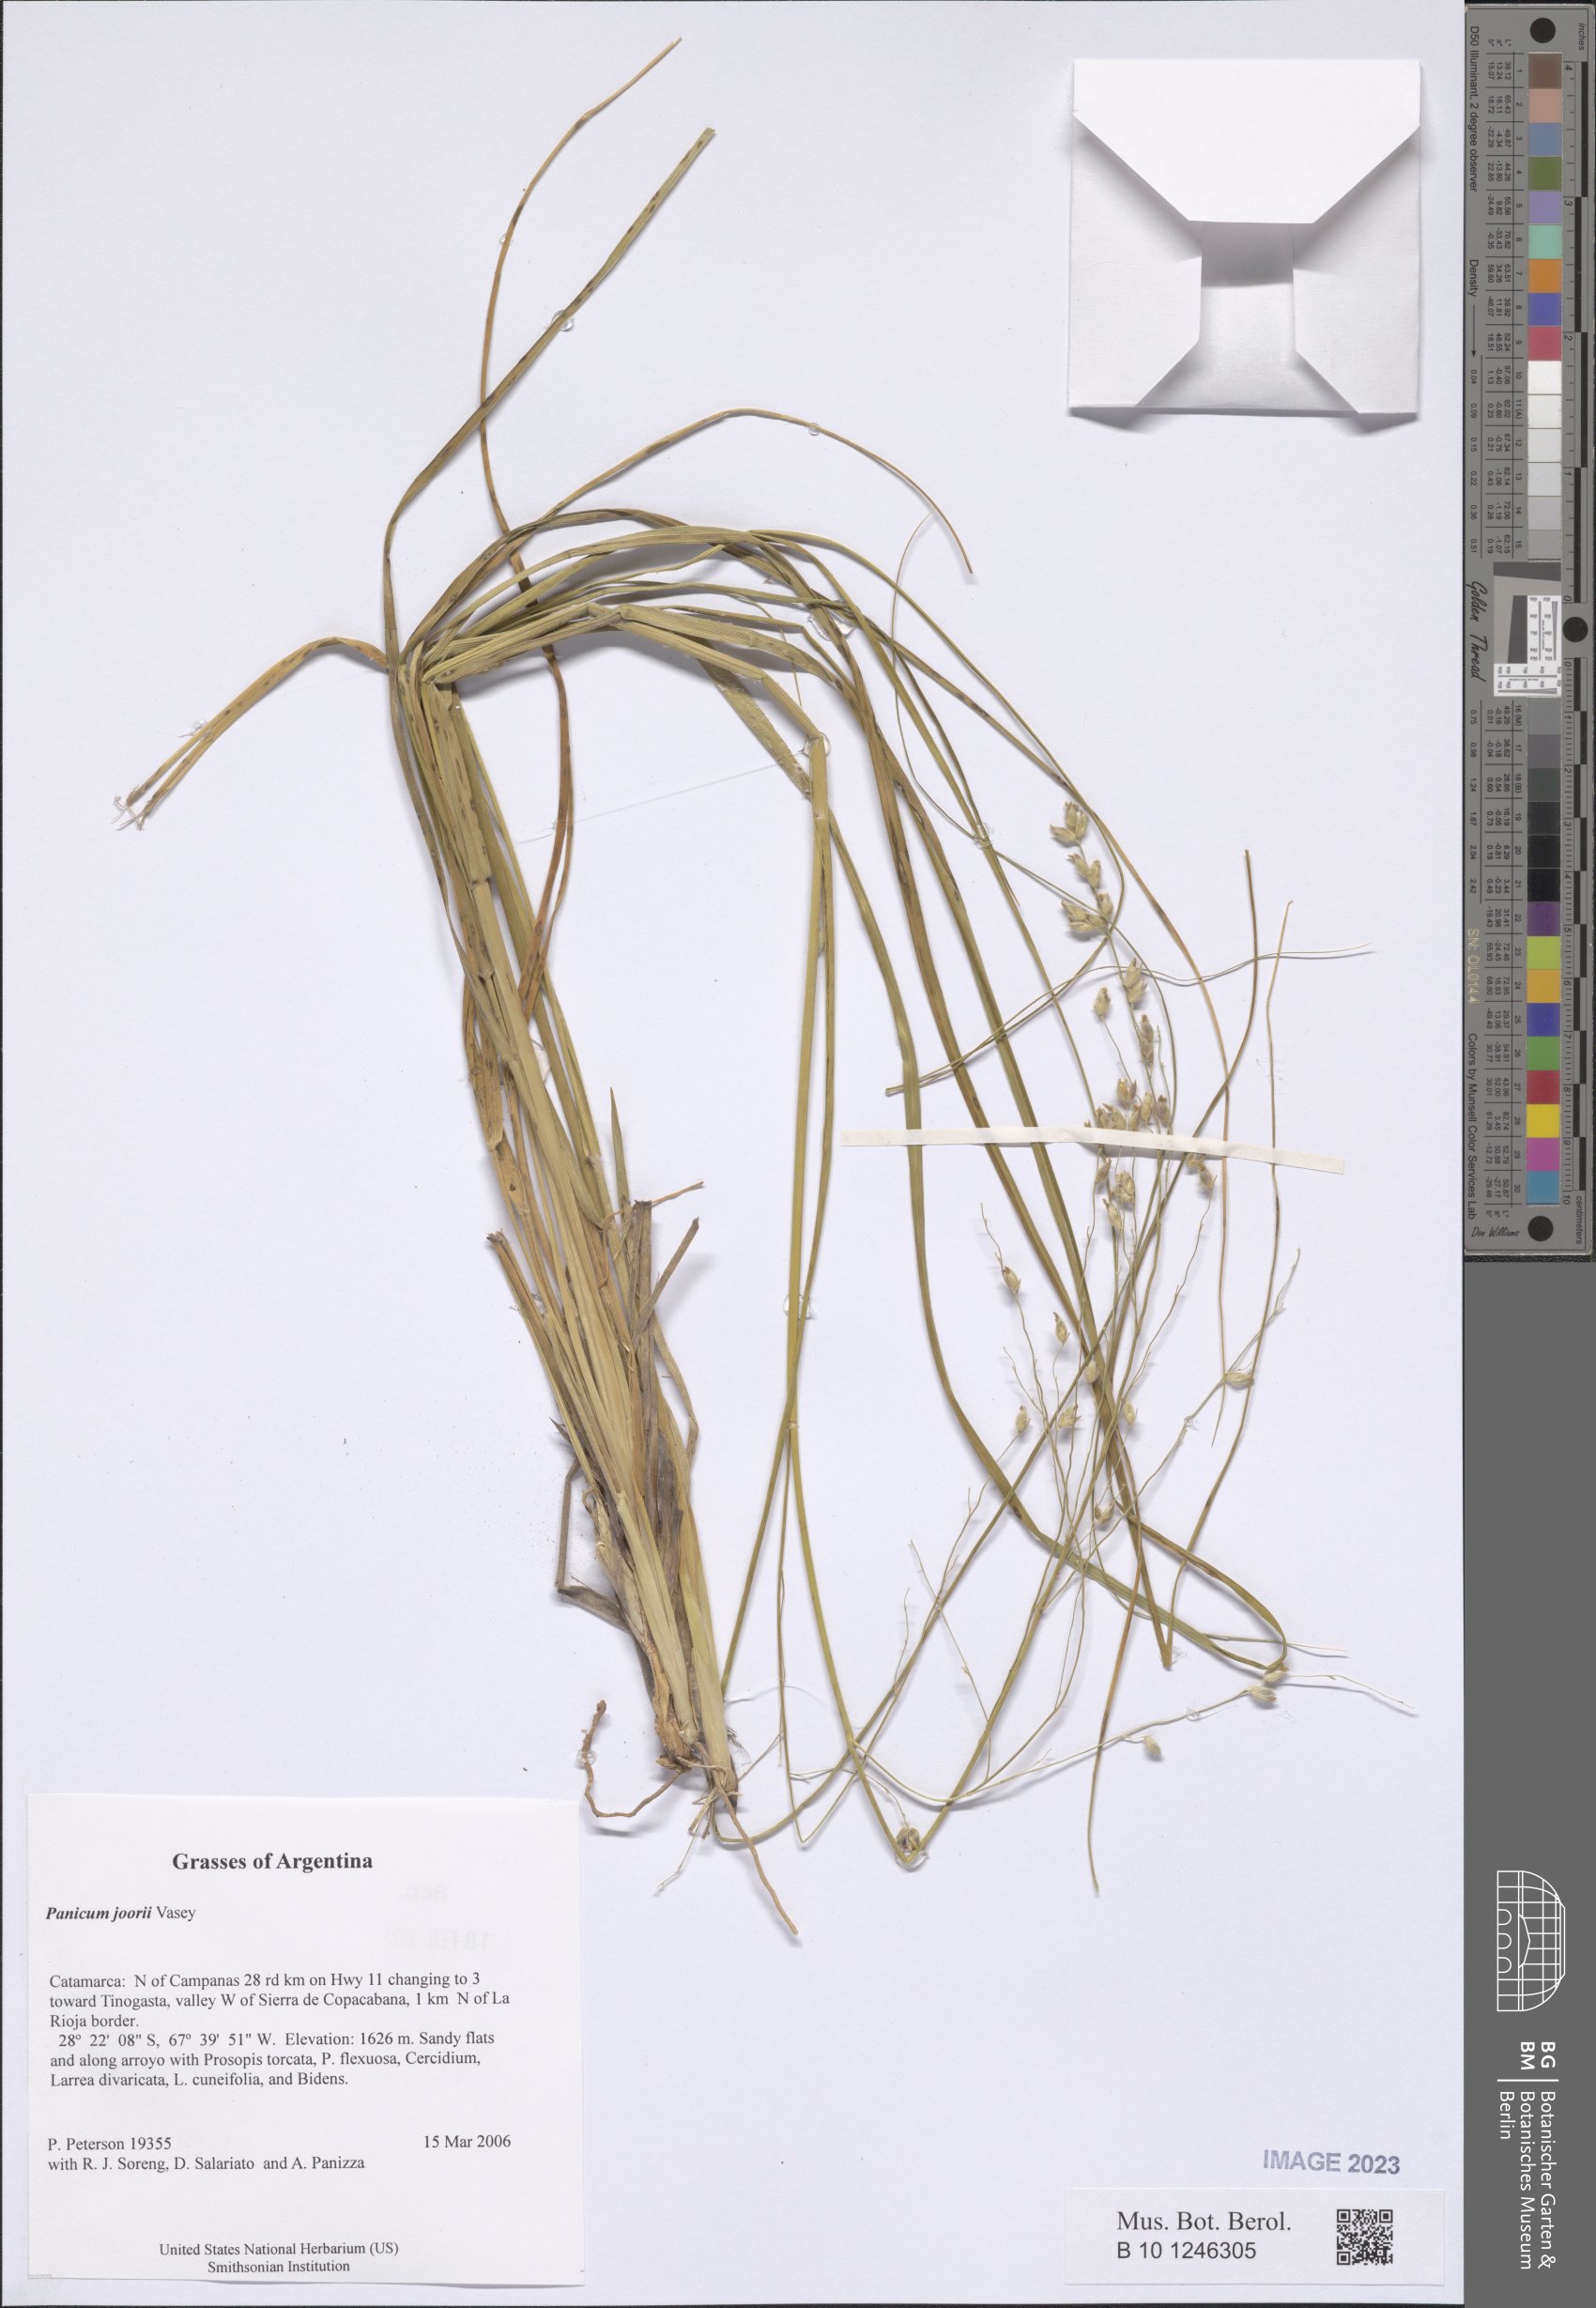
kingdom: Plantae
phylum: Tracheophyta
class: Liliopsida
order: Poales
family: Poaceae
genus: Dichanthelium
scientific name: Dichanthelium commutatum
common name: Variable witchgrass
